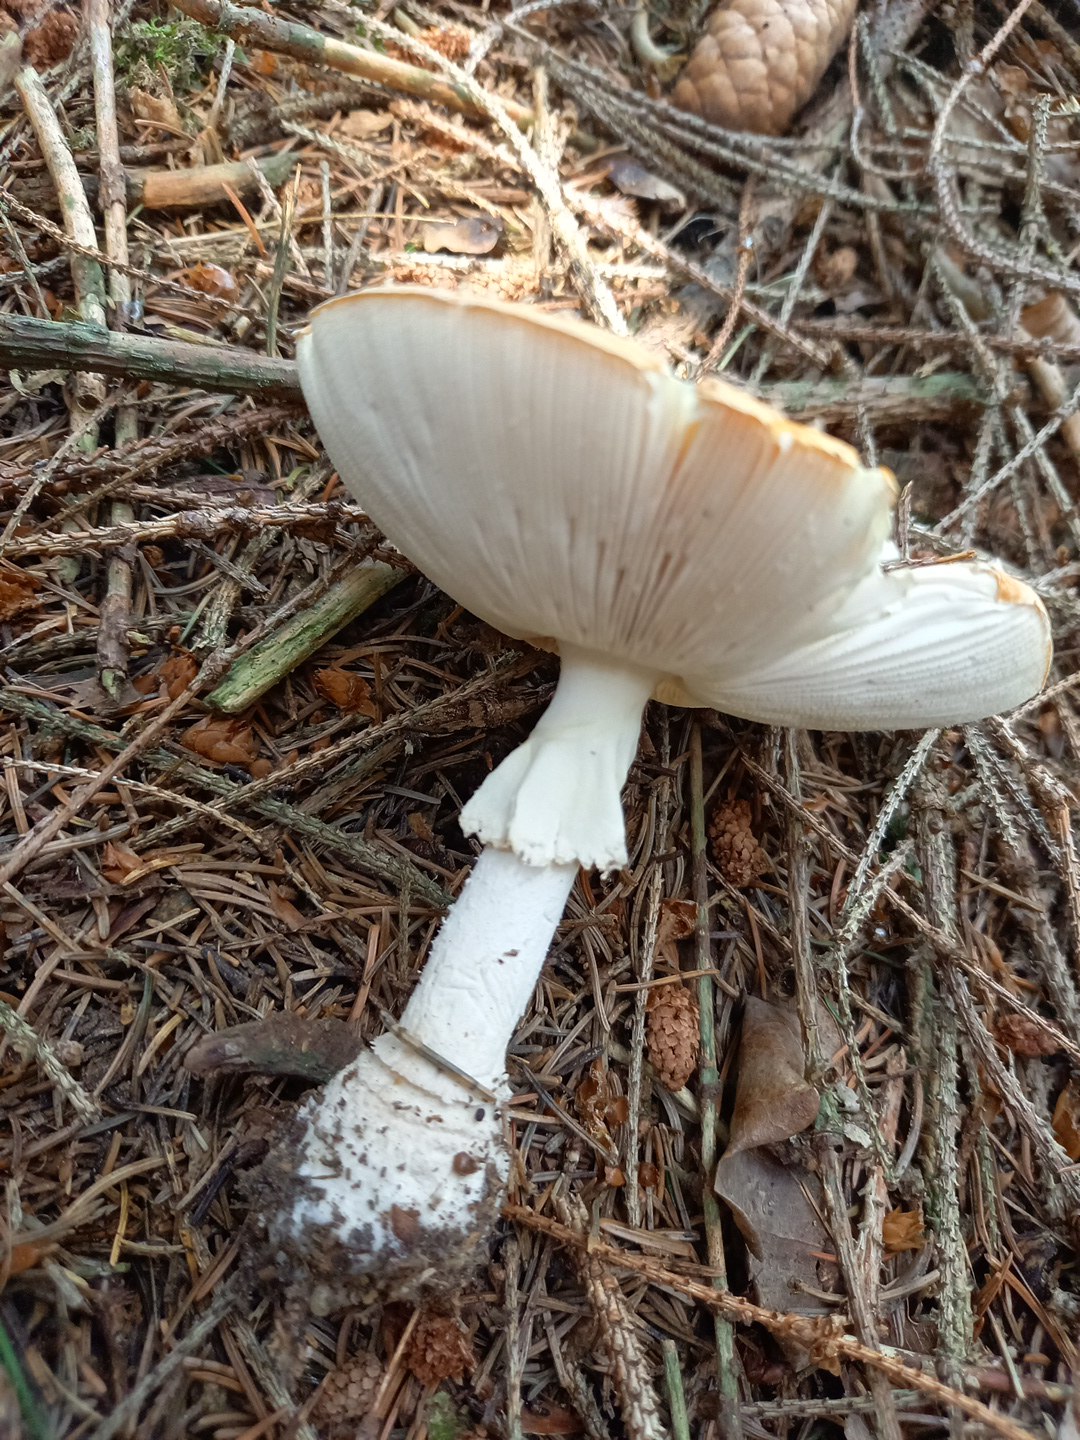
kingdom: Fungi
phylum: Basidiomycota
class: Agaricomycetes
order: Agaricales
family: Amanitaceae
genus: Amanita
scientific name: Amanita muscaria
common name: rød fluesvamp
